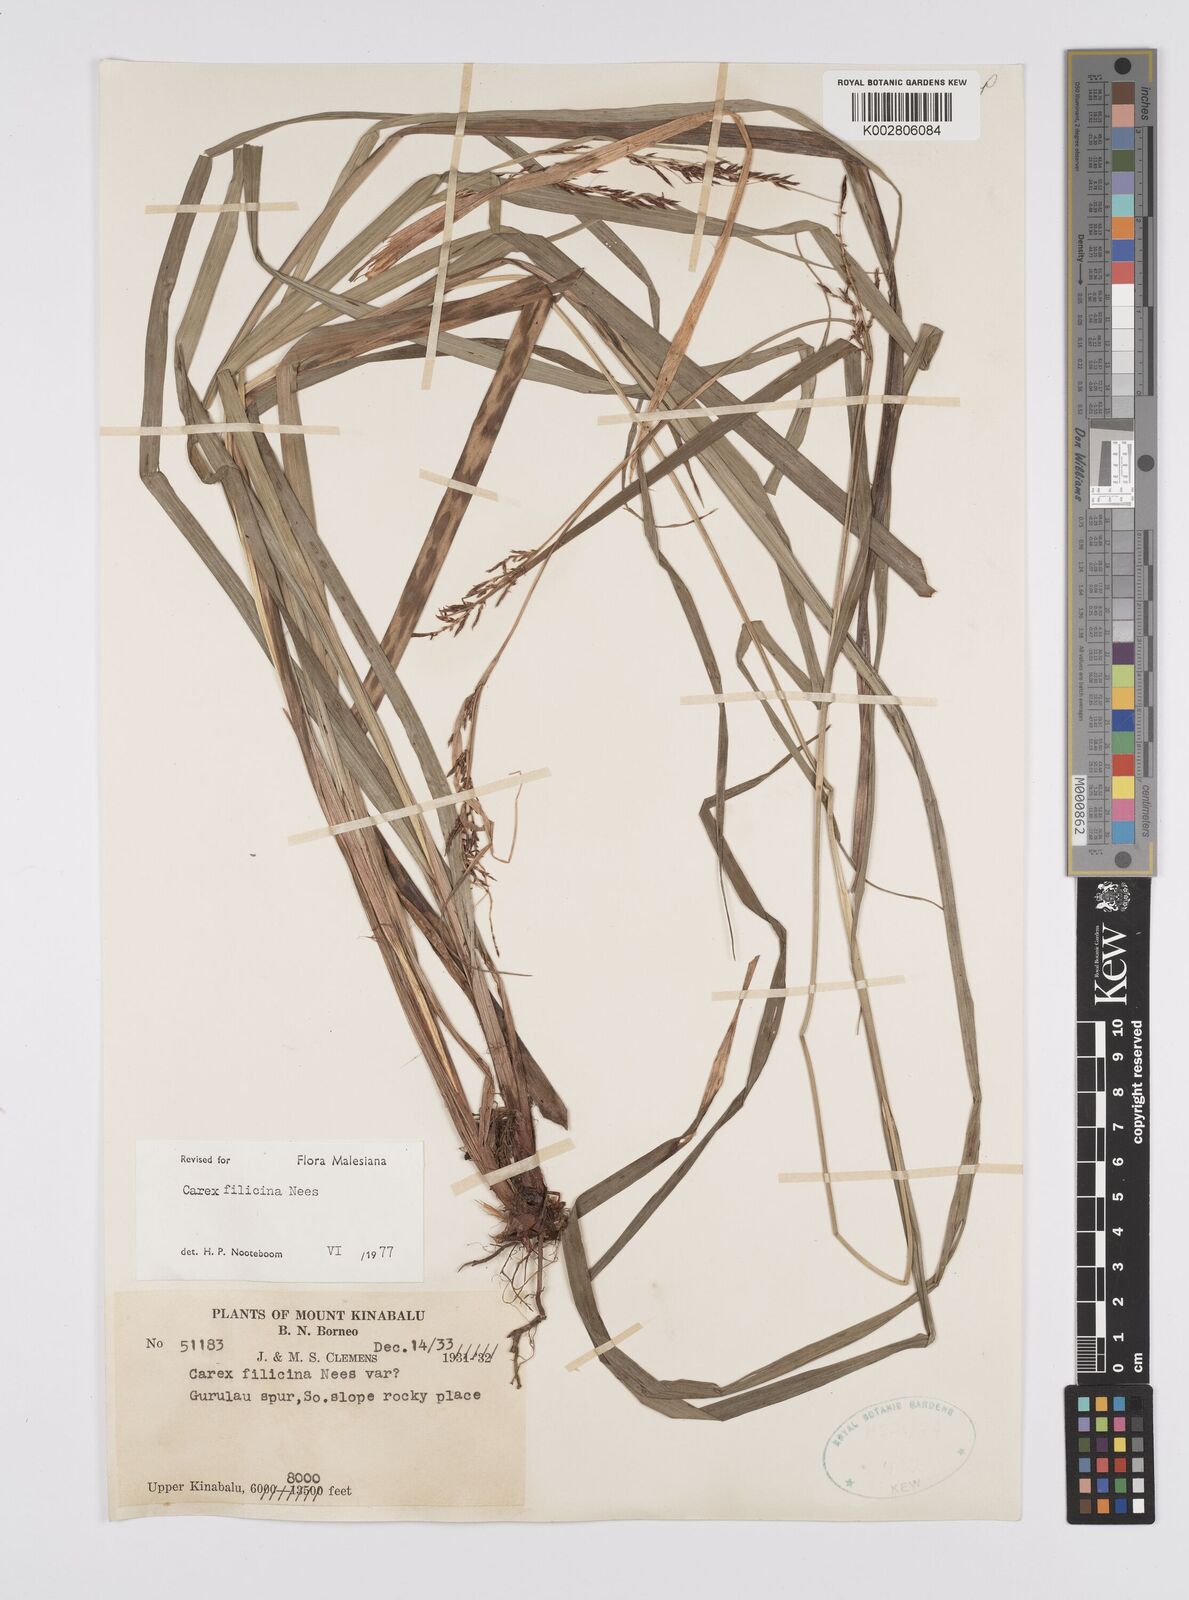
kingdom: Plantae
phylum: Tracheophyta
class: Liliopsida
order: Poales
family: Cyperaceae
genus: Carex
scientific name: Carex filicina
